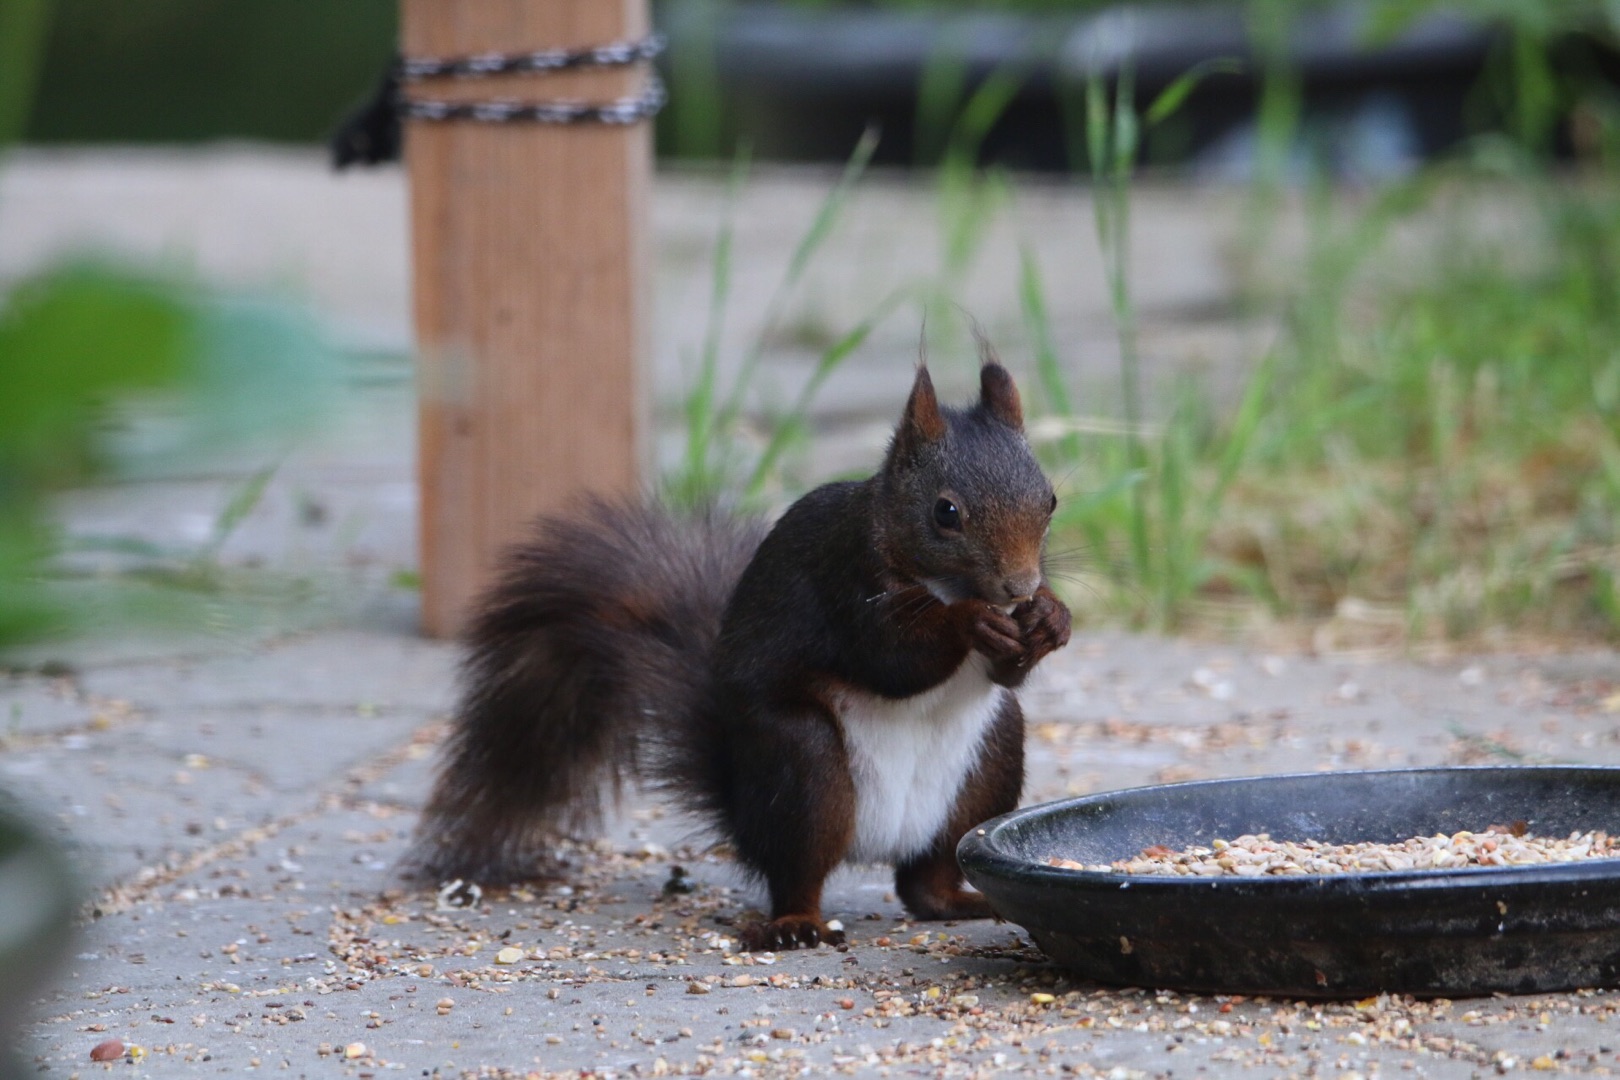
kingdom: Animalia
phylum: Chordata
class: Mammalia
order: Rodentia
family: Sciuridae
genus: Sciurus
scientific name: Sciurus vulgaris
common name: Egern
